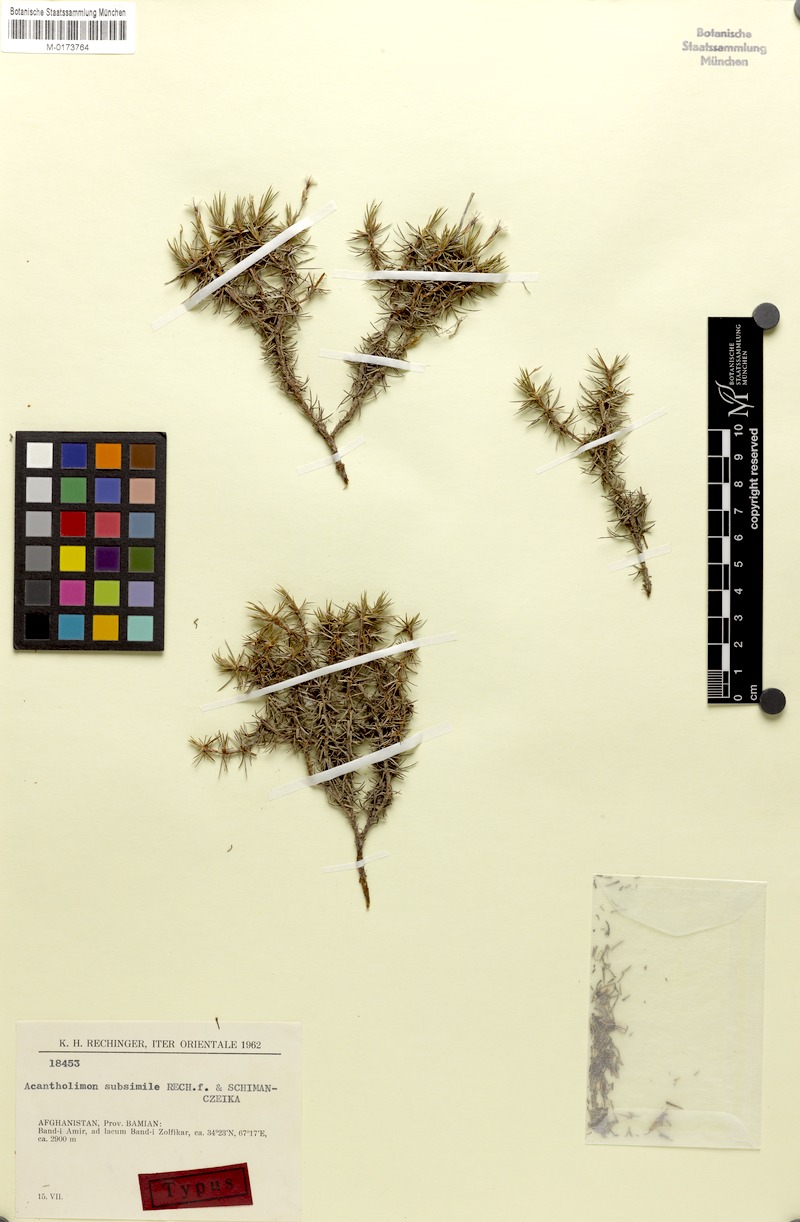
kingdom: Plantae
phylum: Tracheophyta
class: Magnoliopsida
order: Caryophyllales
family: Plumbaginaceae
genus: Acantholimon
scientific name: Acantholimon subsimile
